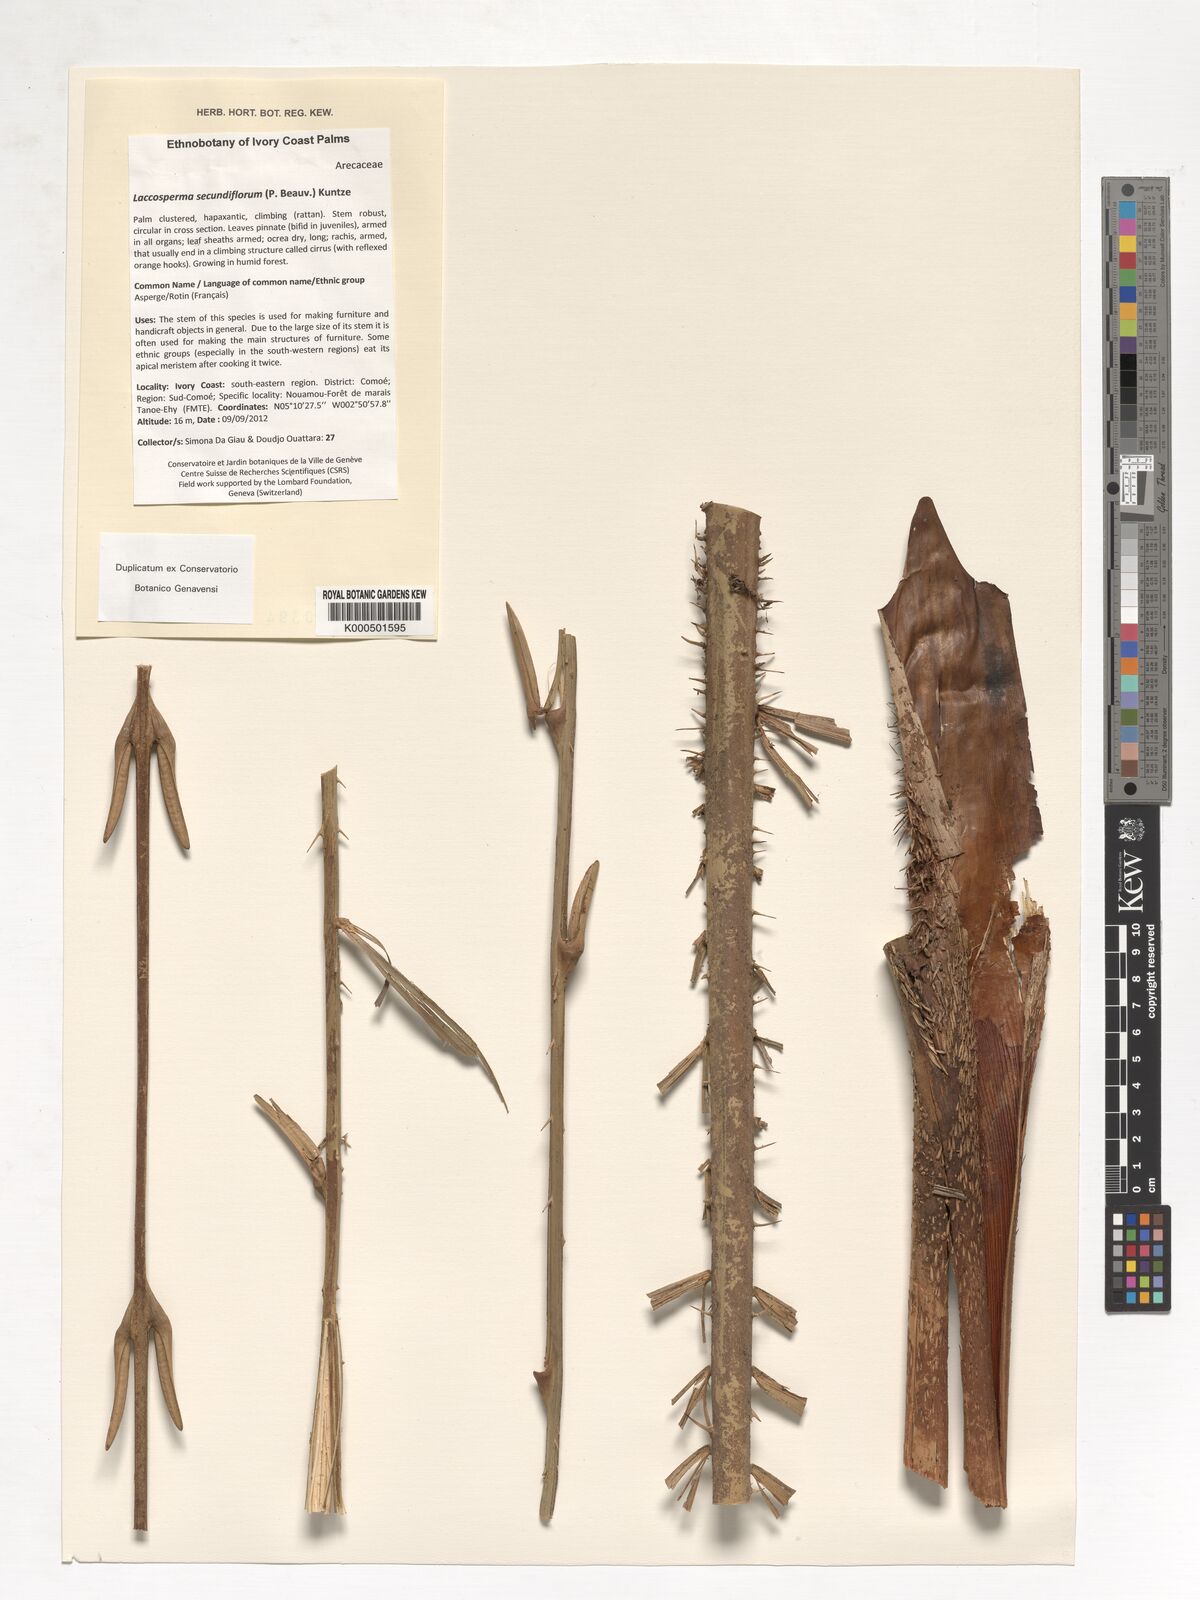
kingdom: Plantae
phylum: Tracheophyta
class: Liliopsida
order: Arecales
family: Arecaceae
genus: Laccosperma
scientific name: Laccosperma secundiflorum
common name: Rattan
